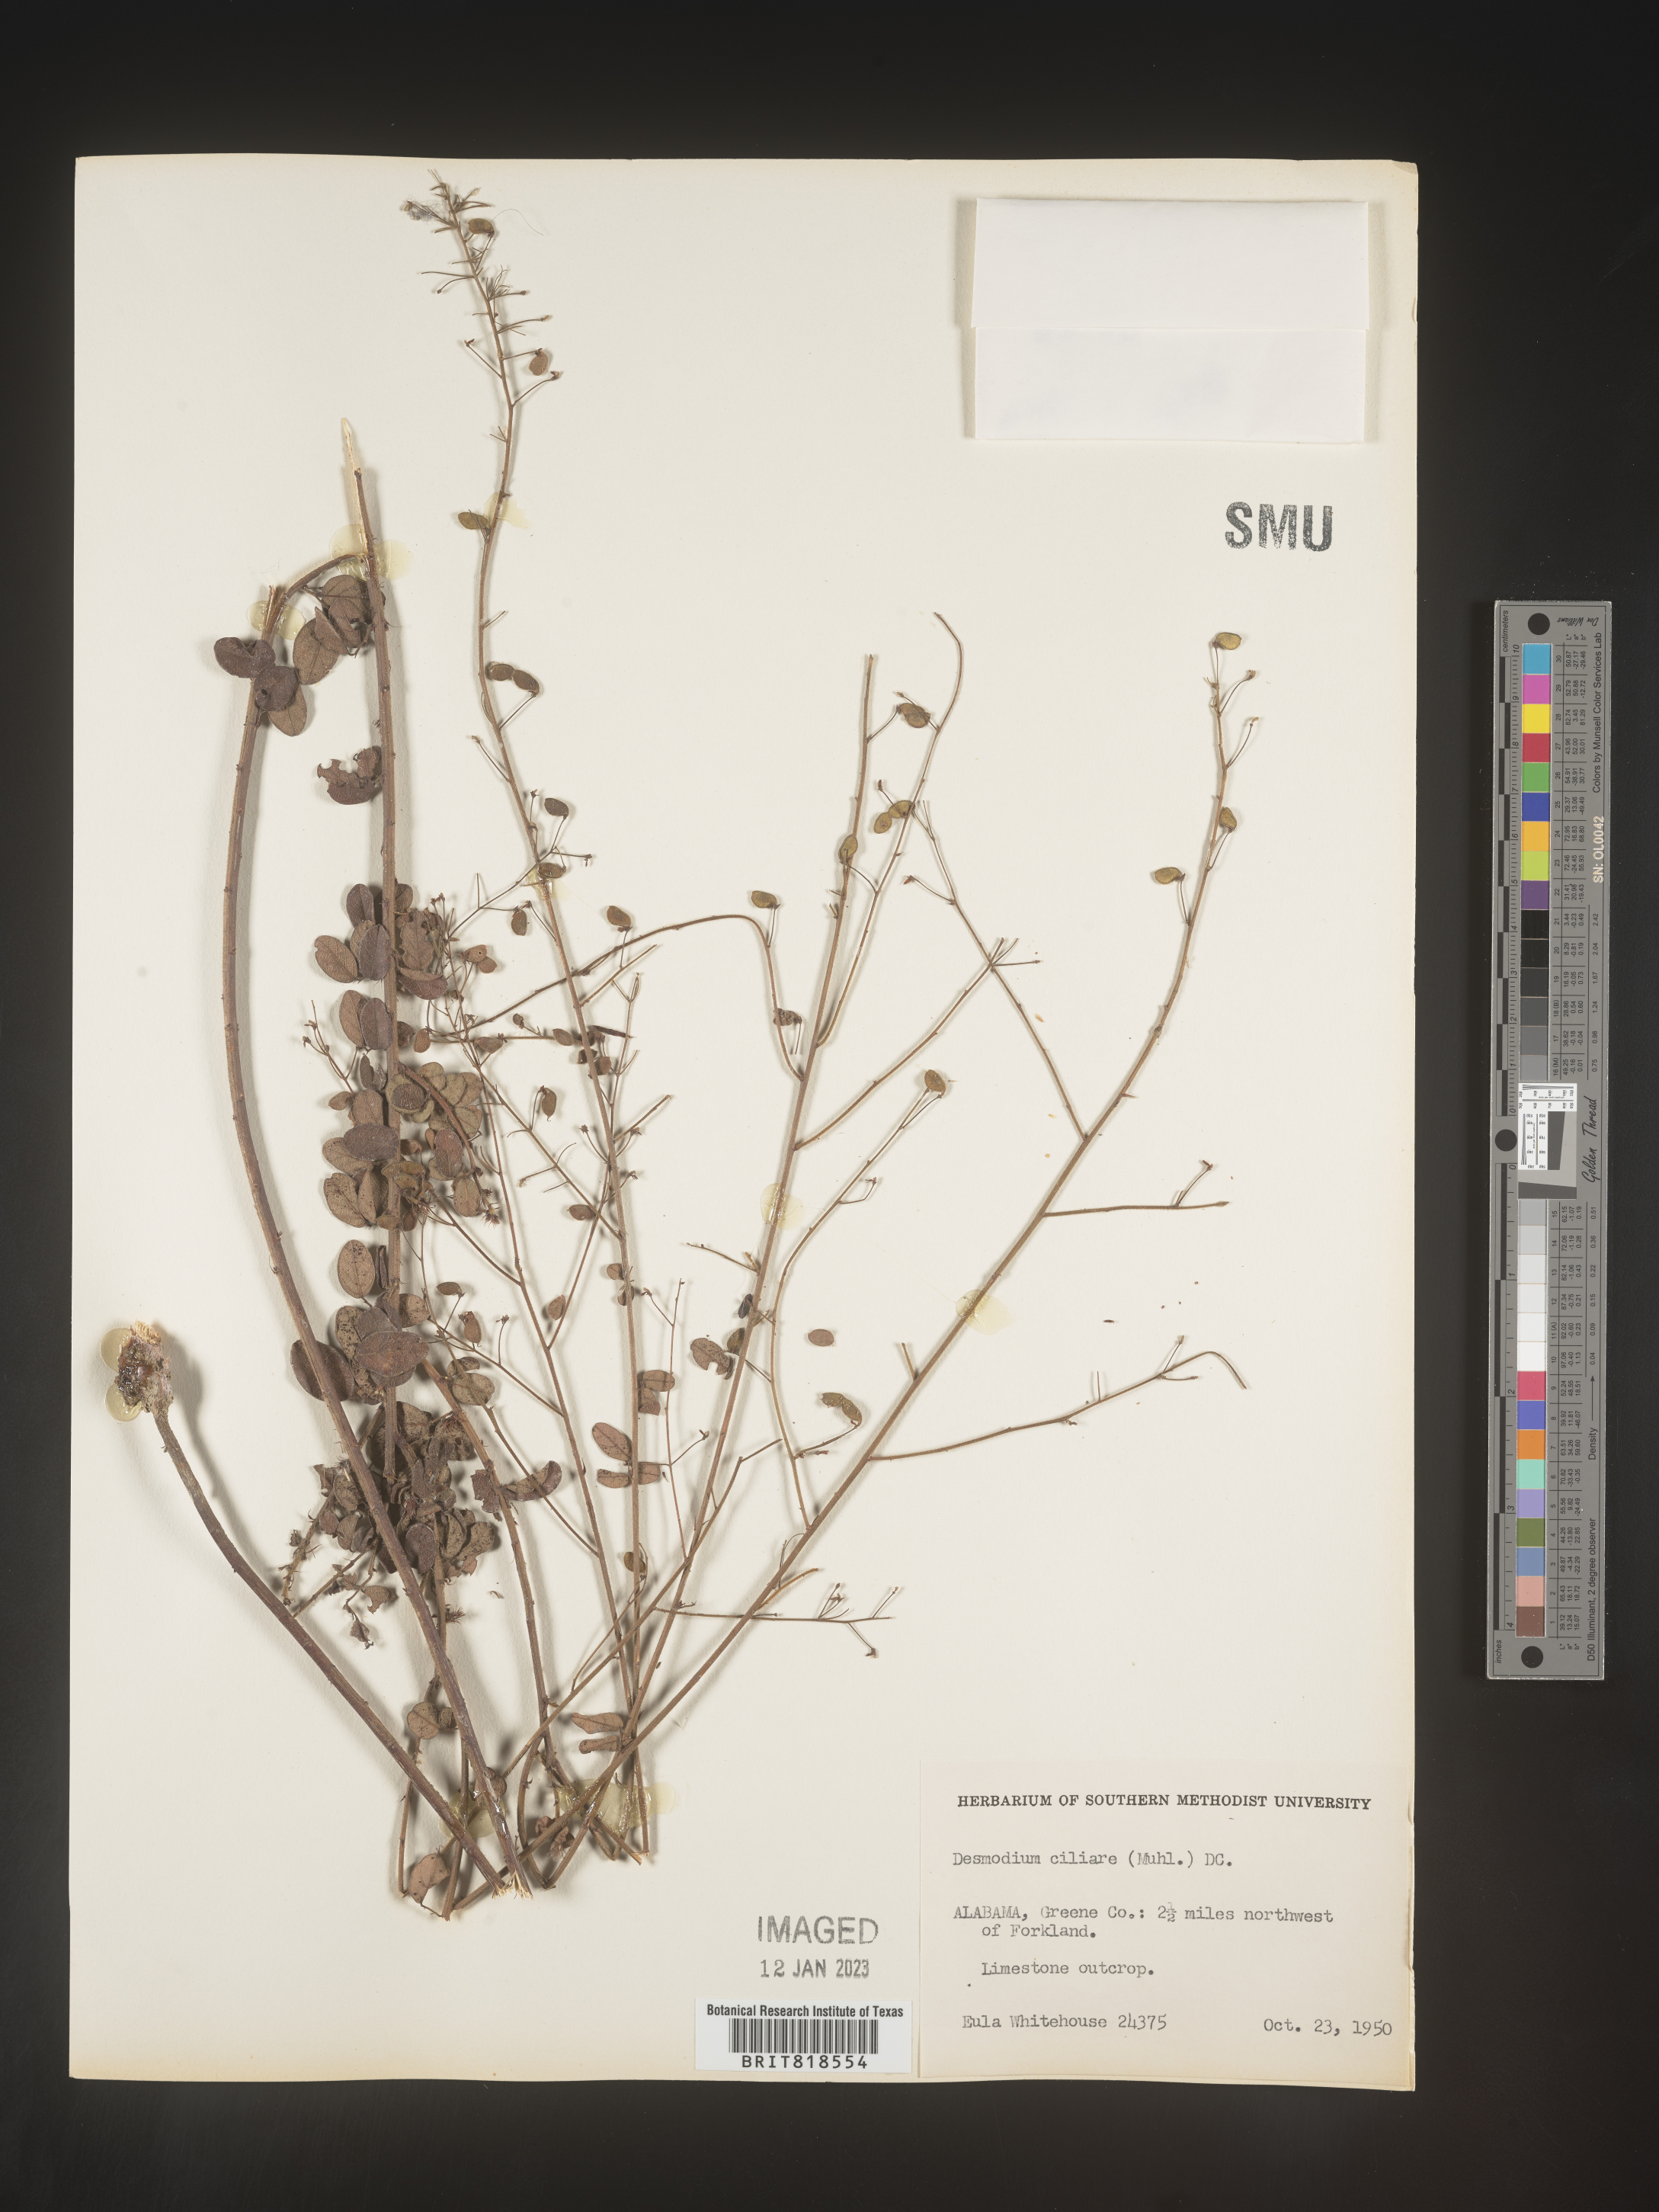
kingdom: Plantae
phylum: Tracheophyta
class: Magnoliopsida
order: Fabales
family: Fabaceae
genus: Desmodium
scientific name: Desmodium ciliare
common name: Hairy small-leaf ticktrefoil
